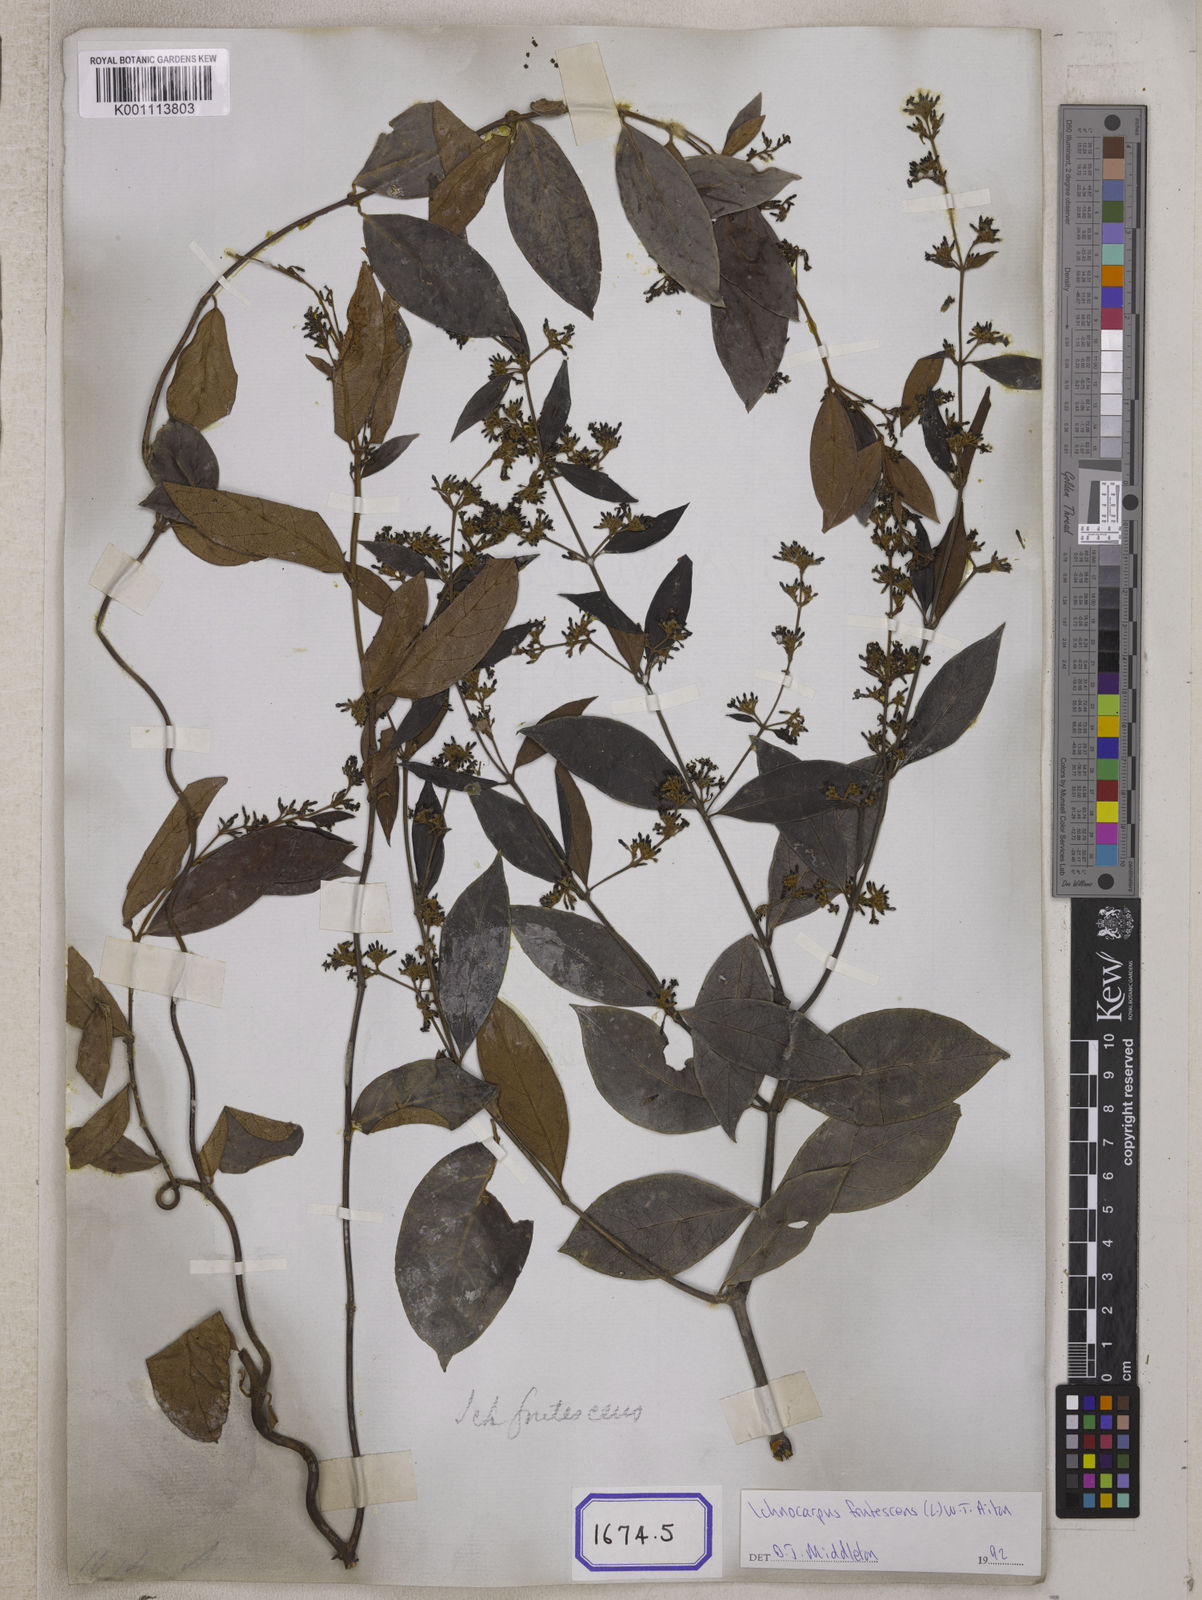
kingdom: Plantae
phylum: Tracheophyta
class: Magnoliopsida
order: Gentianales
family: Apocynaceae
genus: Ichnocarpus
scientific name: Ichnocarpus
